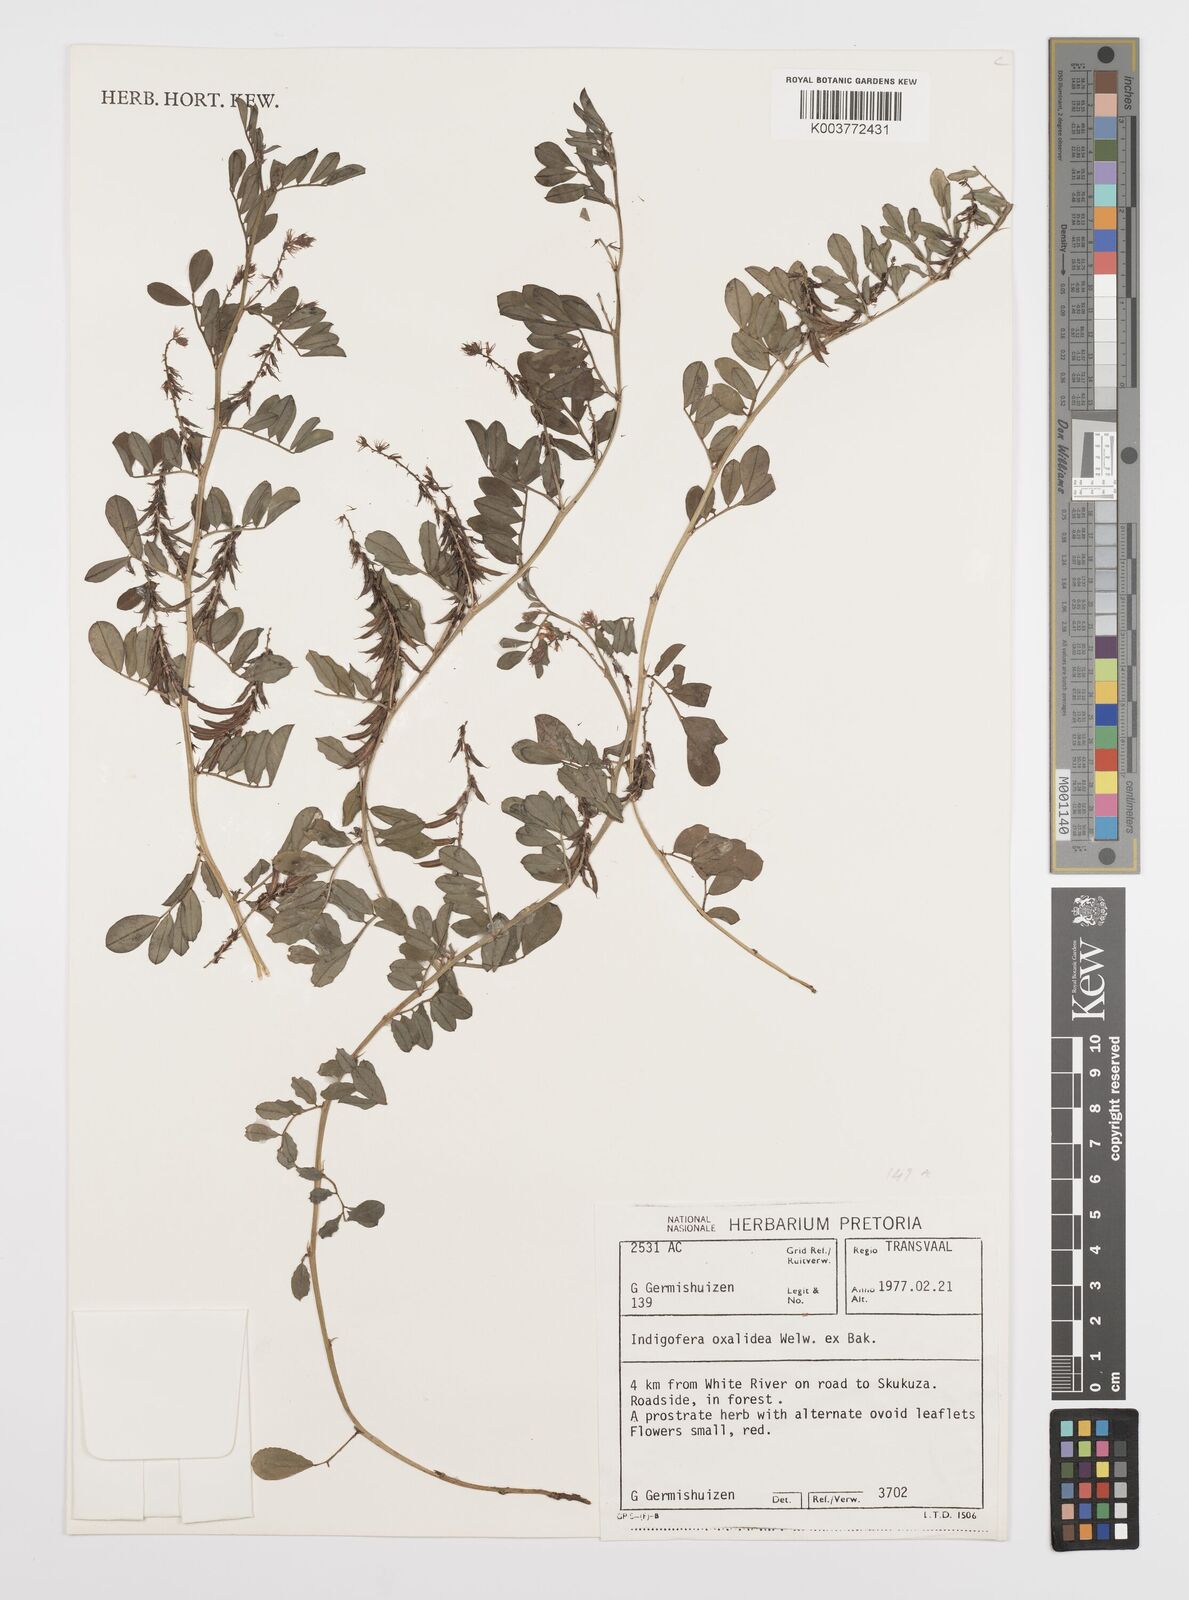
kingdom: Plantae
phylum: Tracheophyta
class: Magnoliopsida
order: Fabales
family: Fabaceae
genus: Indigofera
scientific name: Indigofera oxalidea
